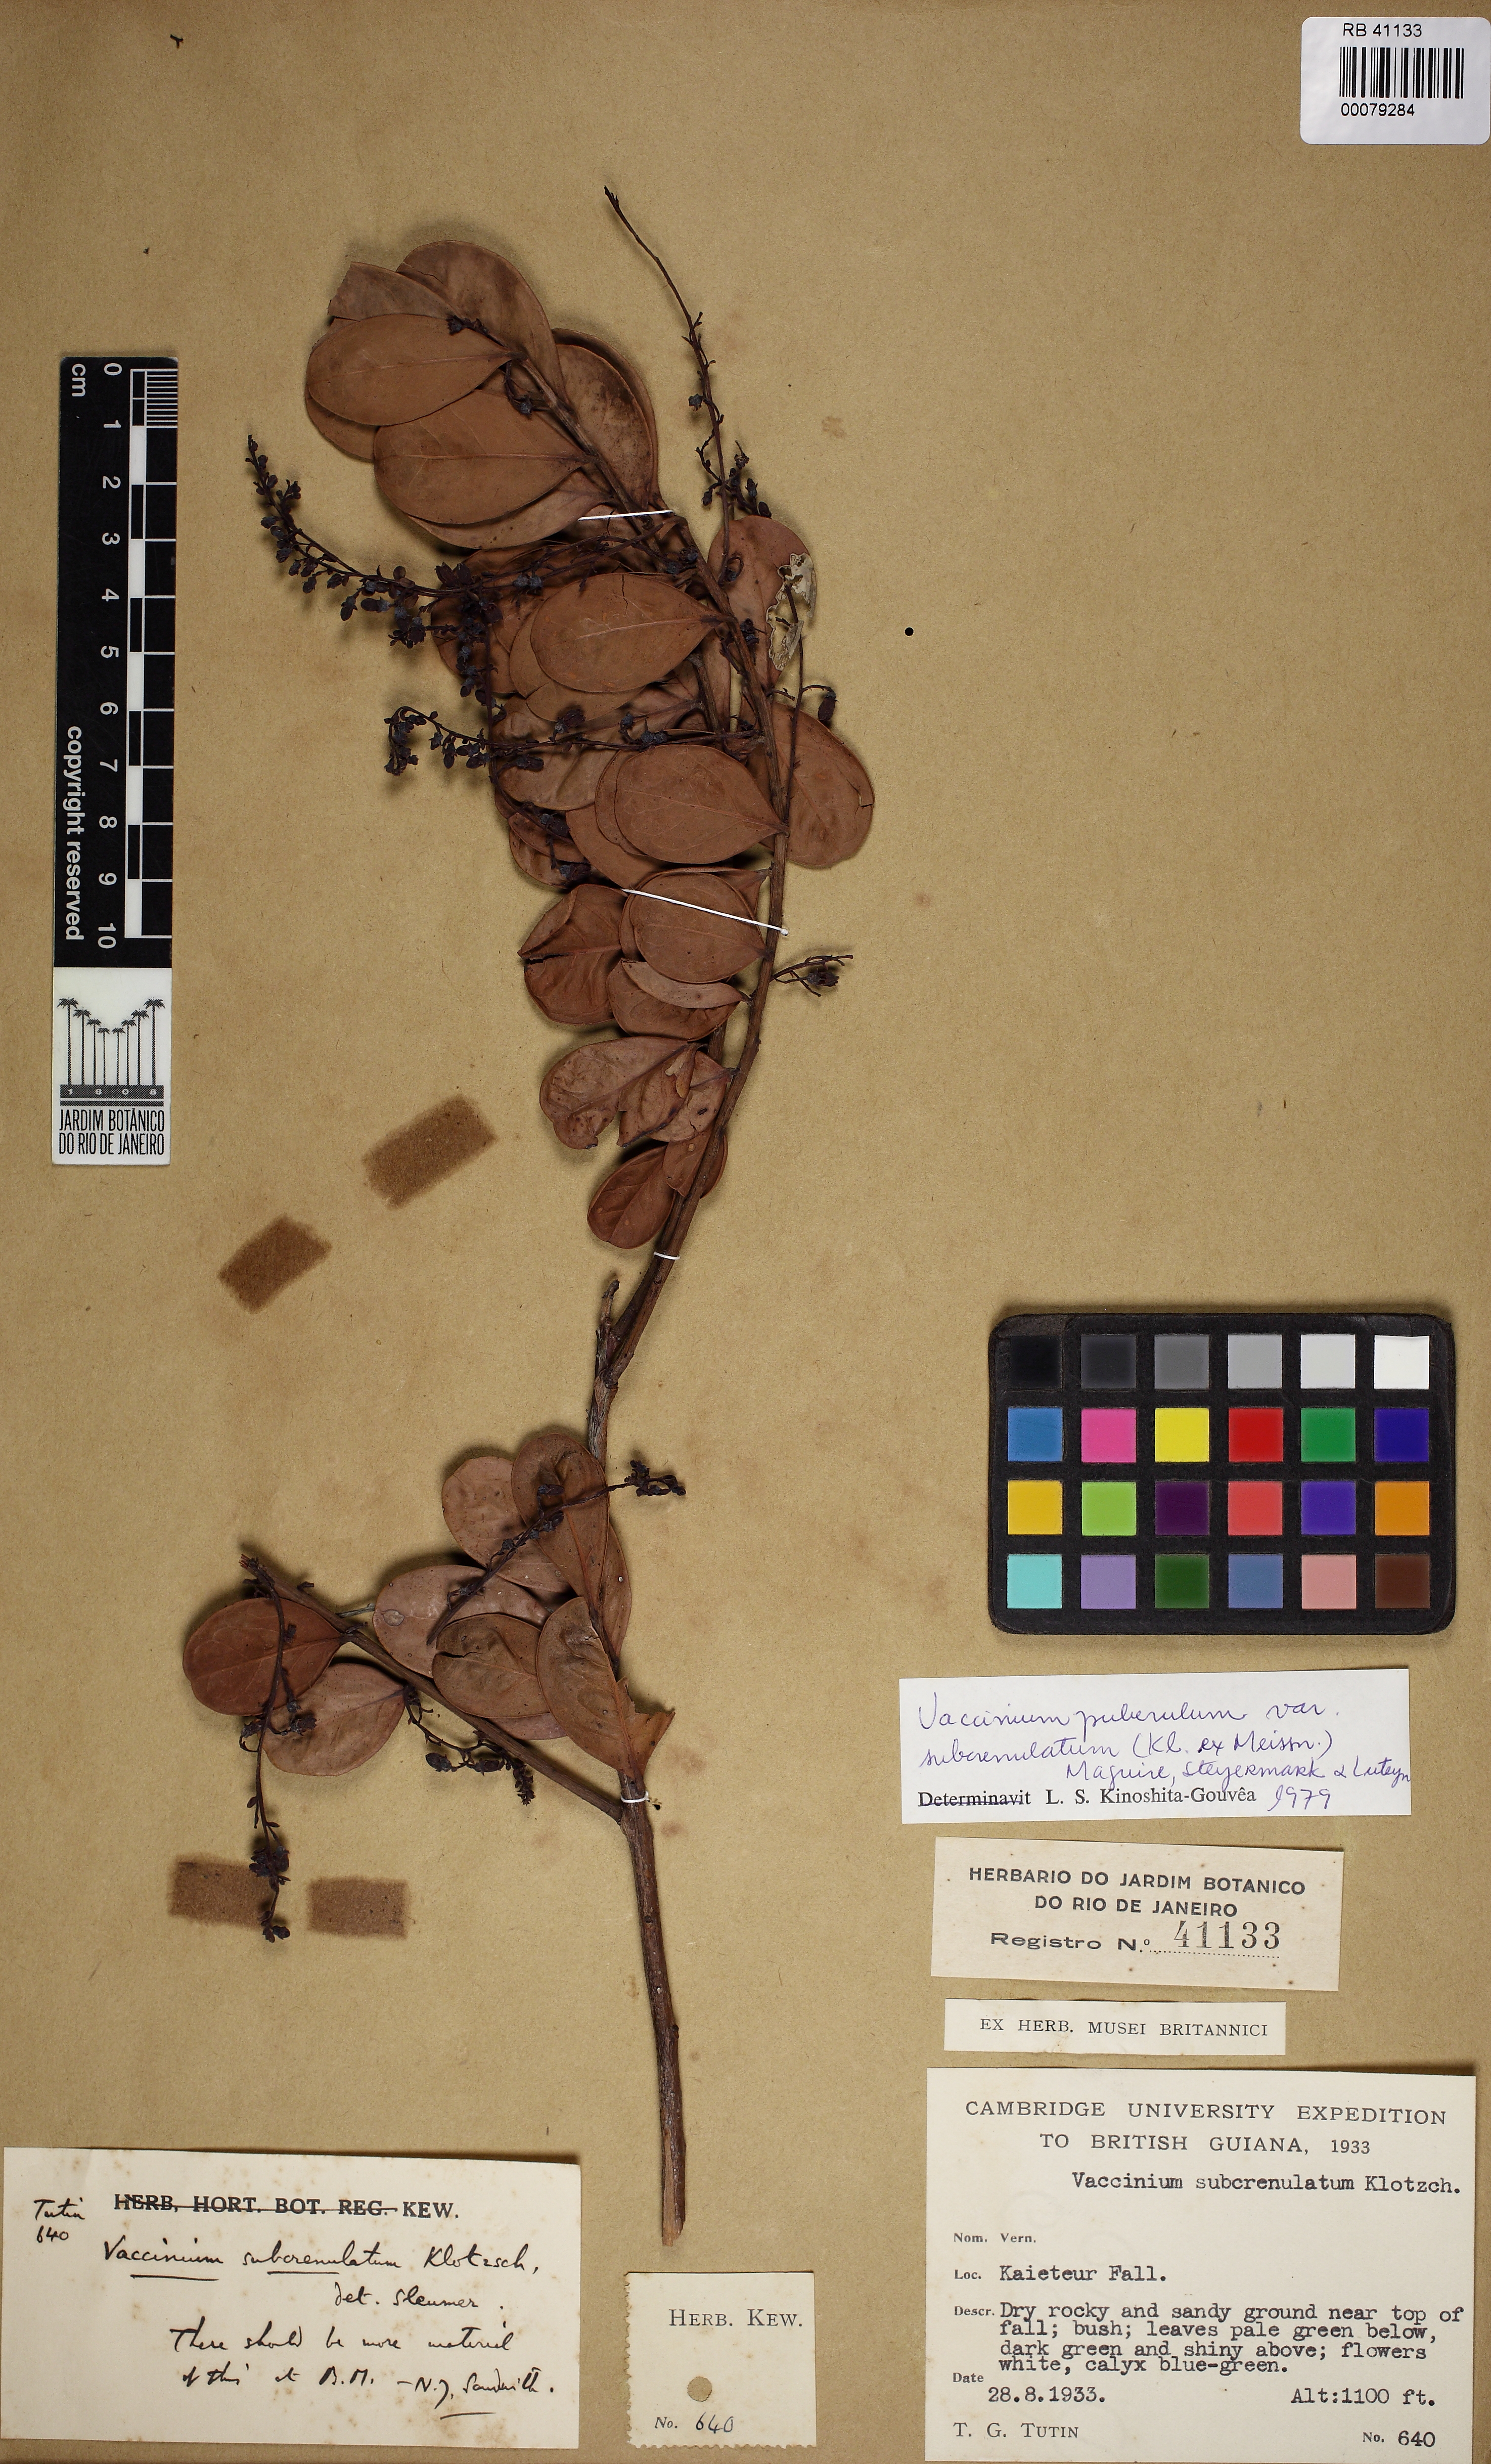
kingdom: Plantae
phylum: Tracheophyta
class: Magnoliopsida
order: Ericales
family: Ericaceae
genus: Vaccinium
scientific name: Vaccinium puberulum
